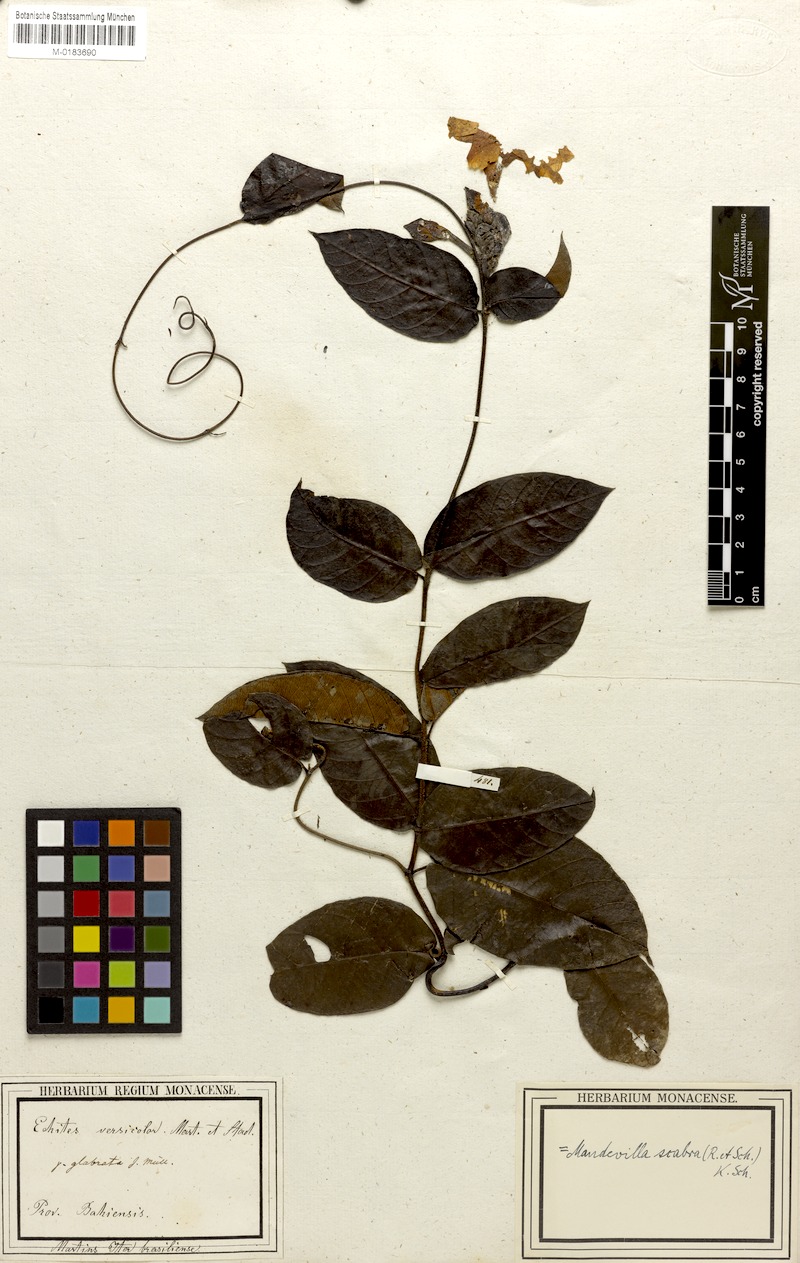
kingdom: Plantae
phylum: Tracheophyta
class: Magnoliopsida
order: Gentianales
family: Apocynaceae
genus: Mandevilla
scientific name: Mandevilla scabra
